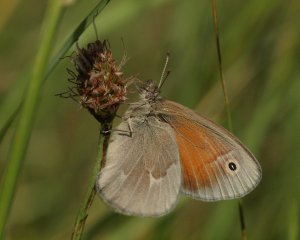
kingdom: Animalia
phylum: Arthropoda
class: Insecta
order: Lepidoptera
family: Nymphalidae
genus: Coenonympha
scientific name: Coenonympha tullia
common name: Large Heath
